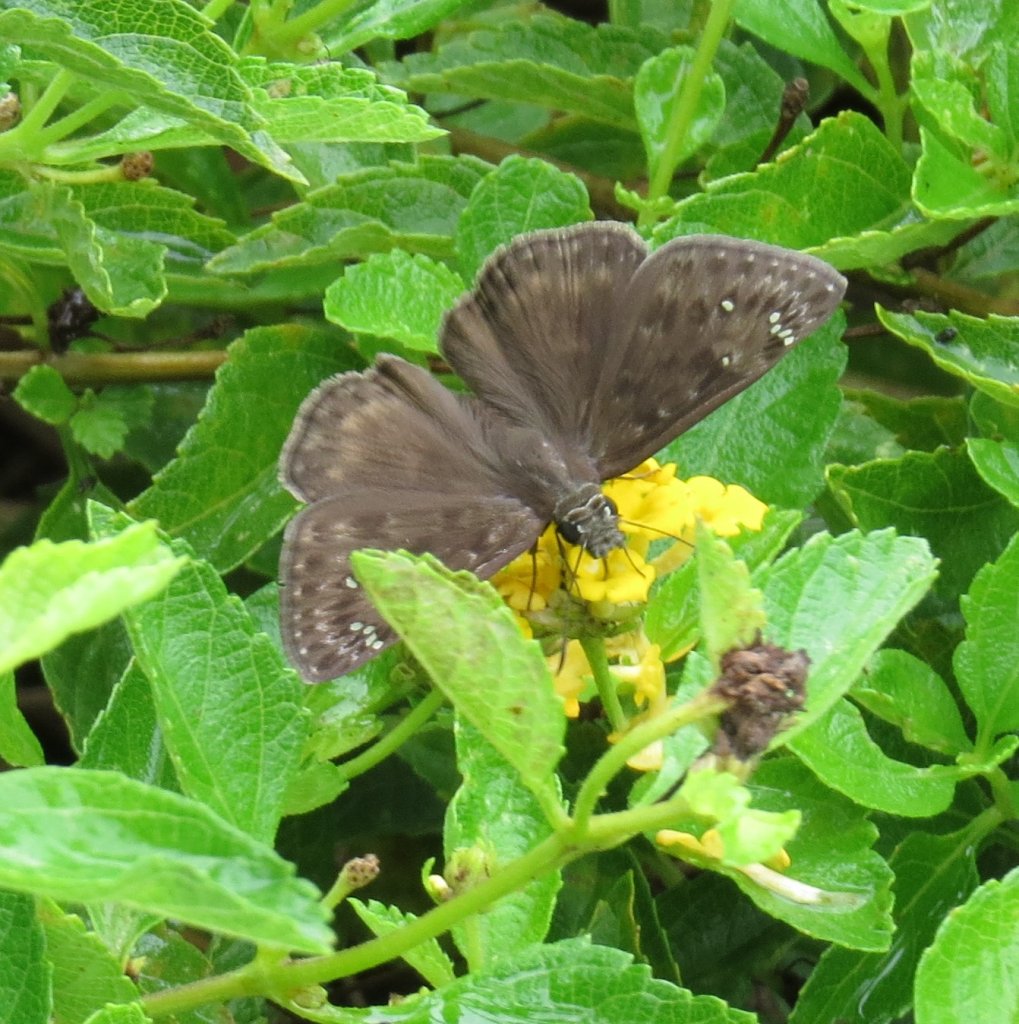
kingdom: Animalia
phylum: Arthropoda
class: Insecta
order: Lepidoptera
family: Hesperiidae
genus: Gesta
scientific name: Gesta
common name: Horace's Duskywing
